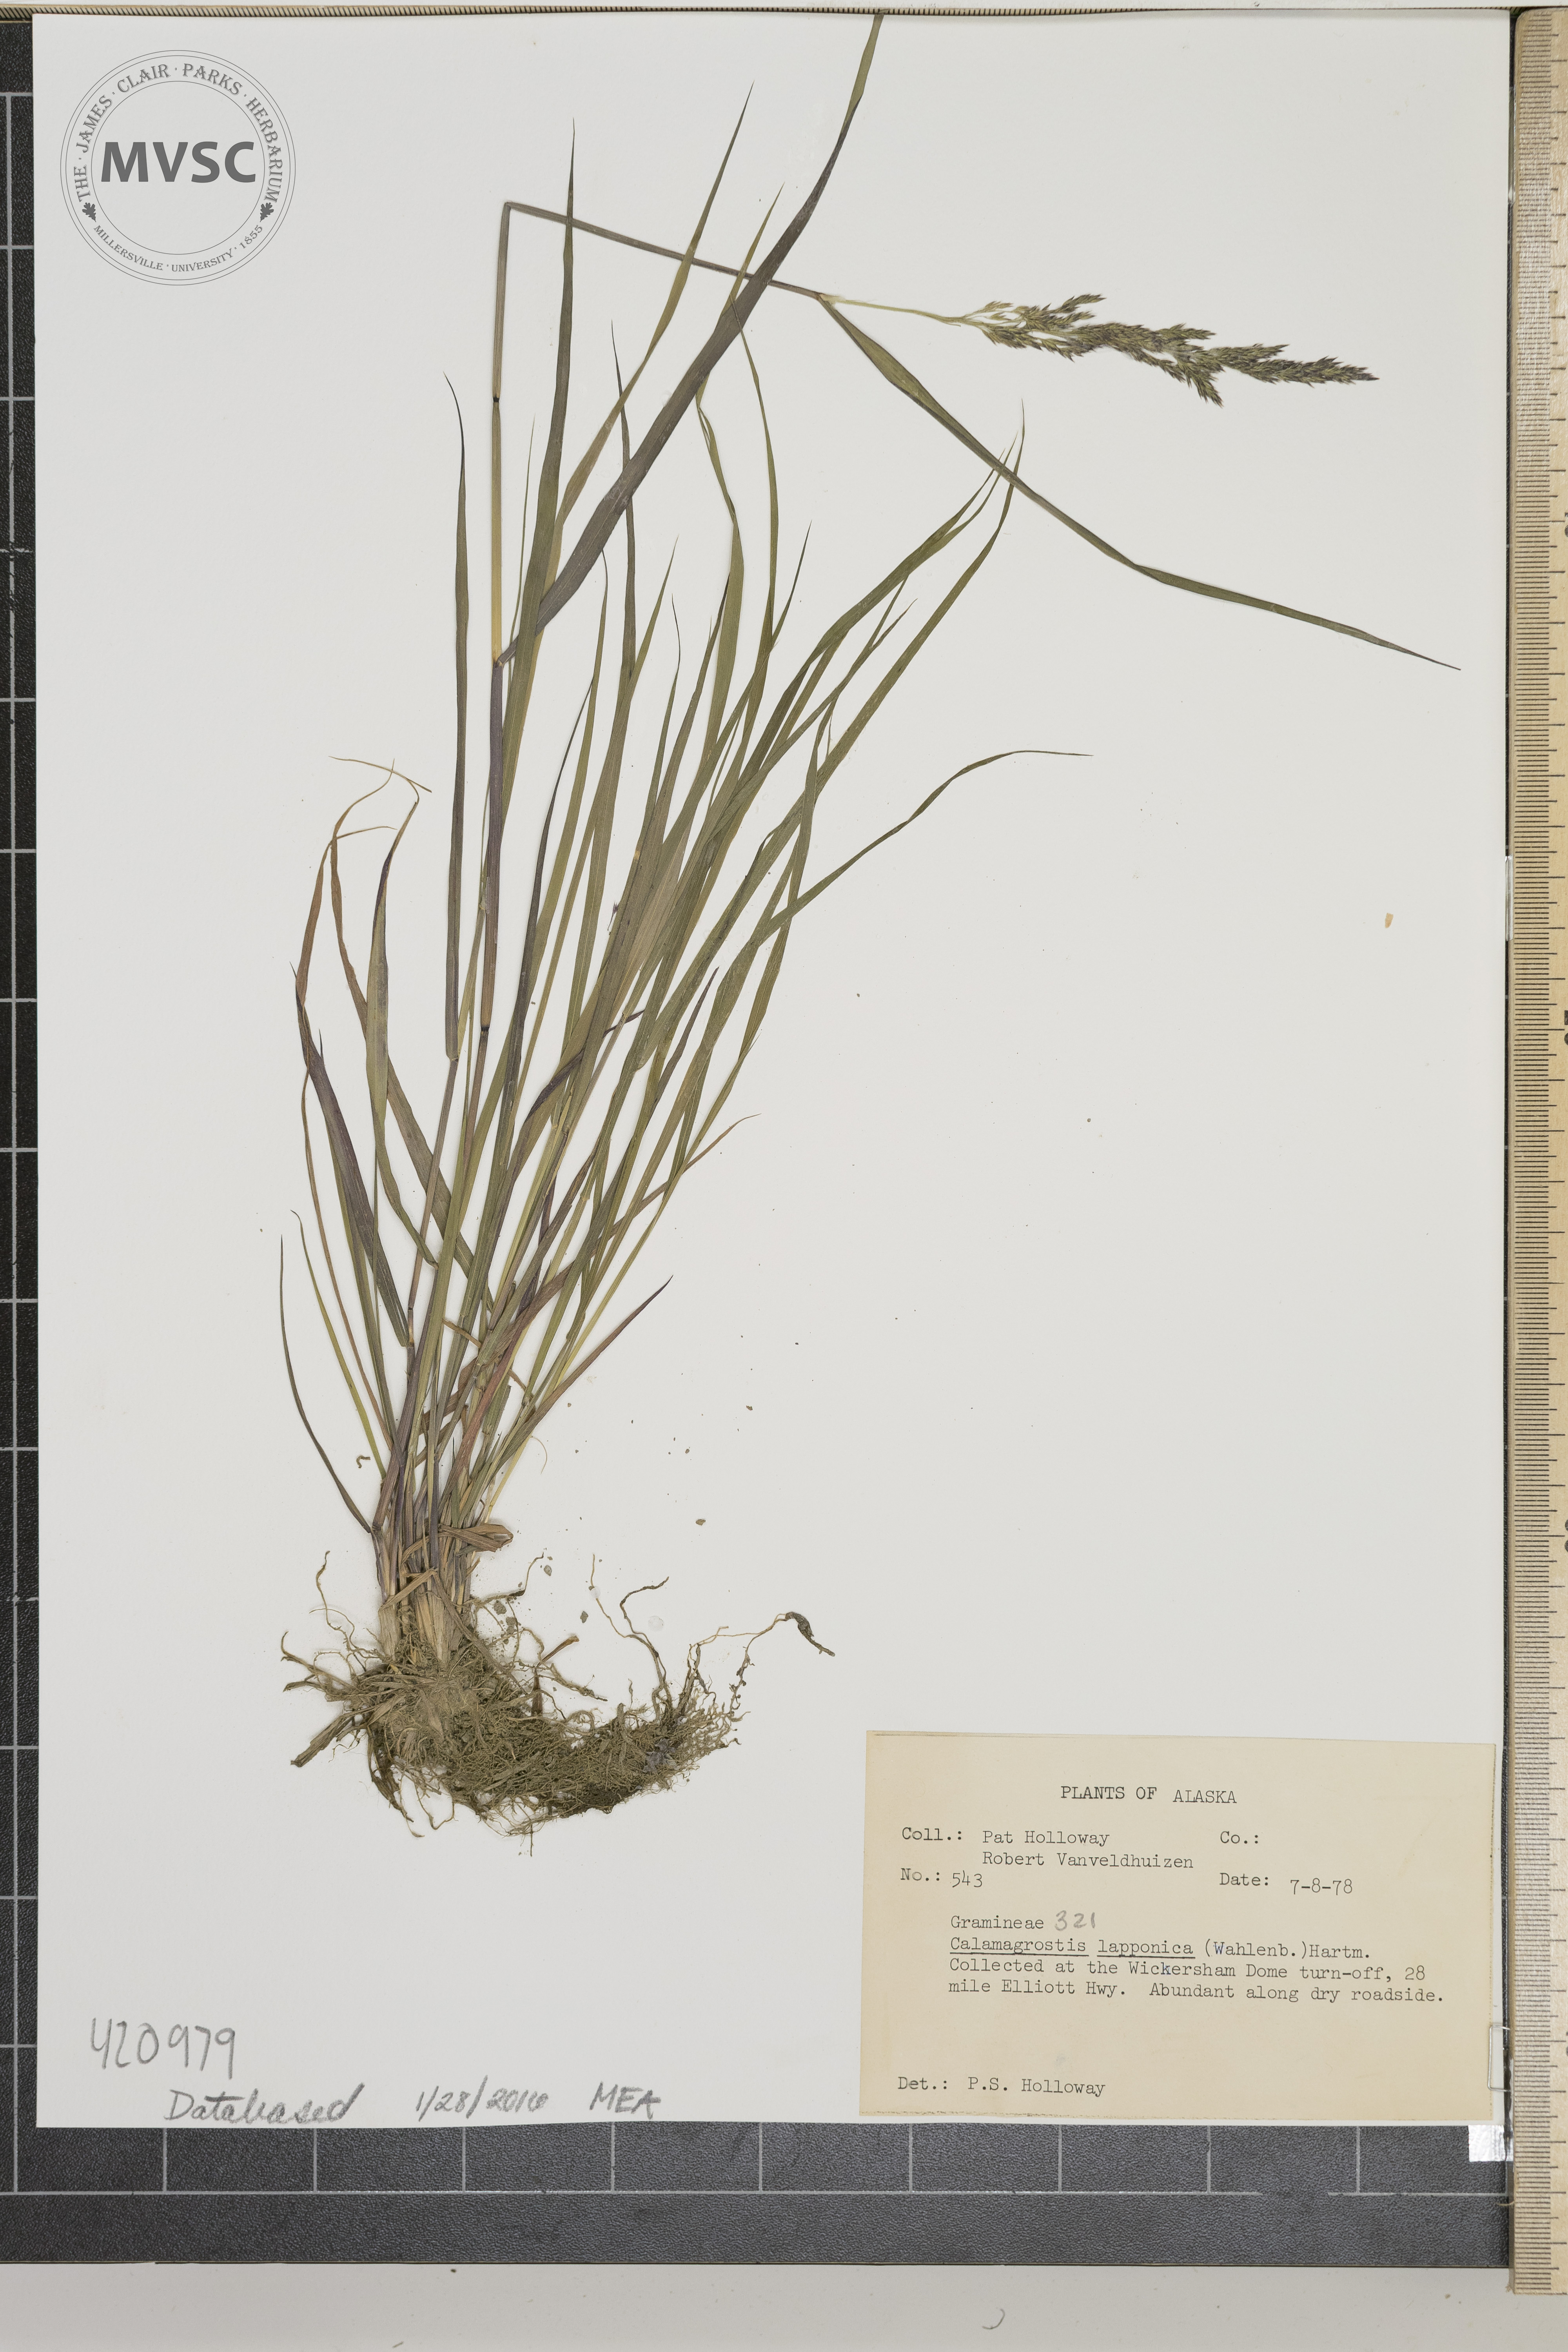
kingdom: Plantae
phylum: Tracheophyta
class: Liliopsida
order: Poales
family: Poaceae
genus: Calamagrostis
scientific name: Calamagrostis lapponica
